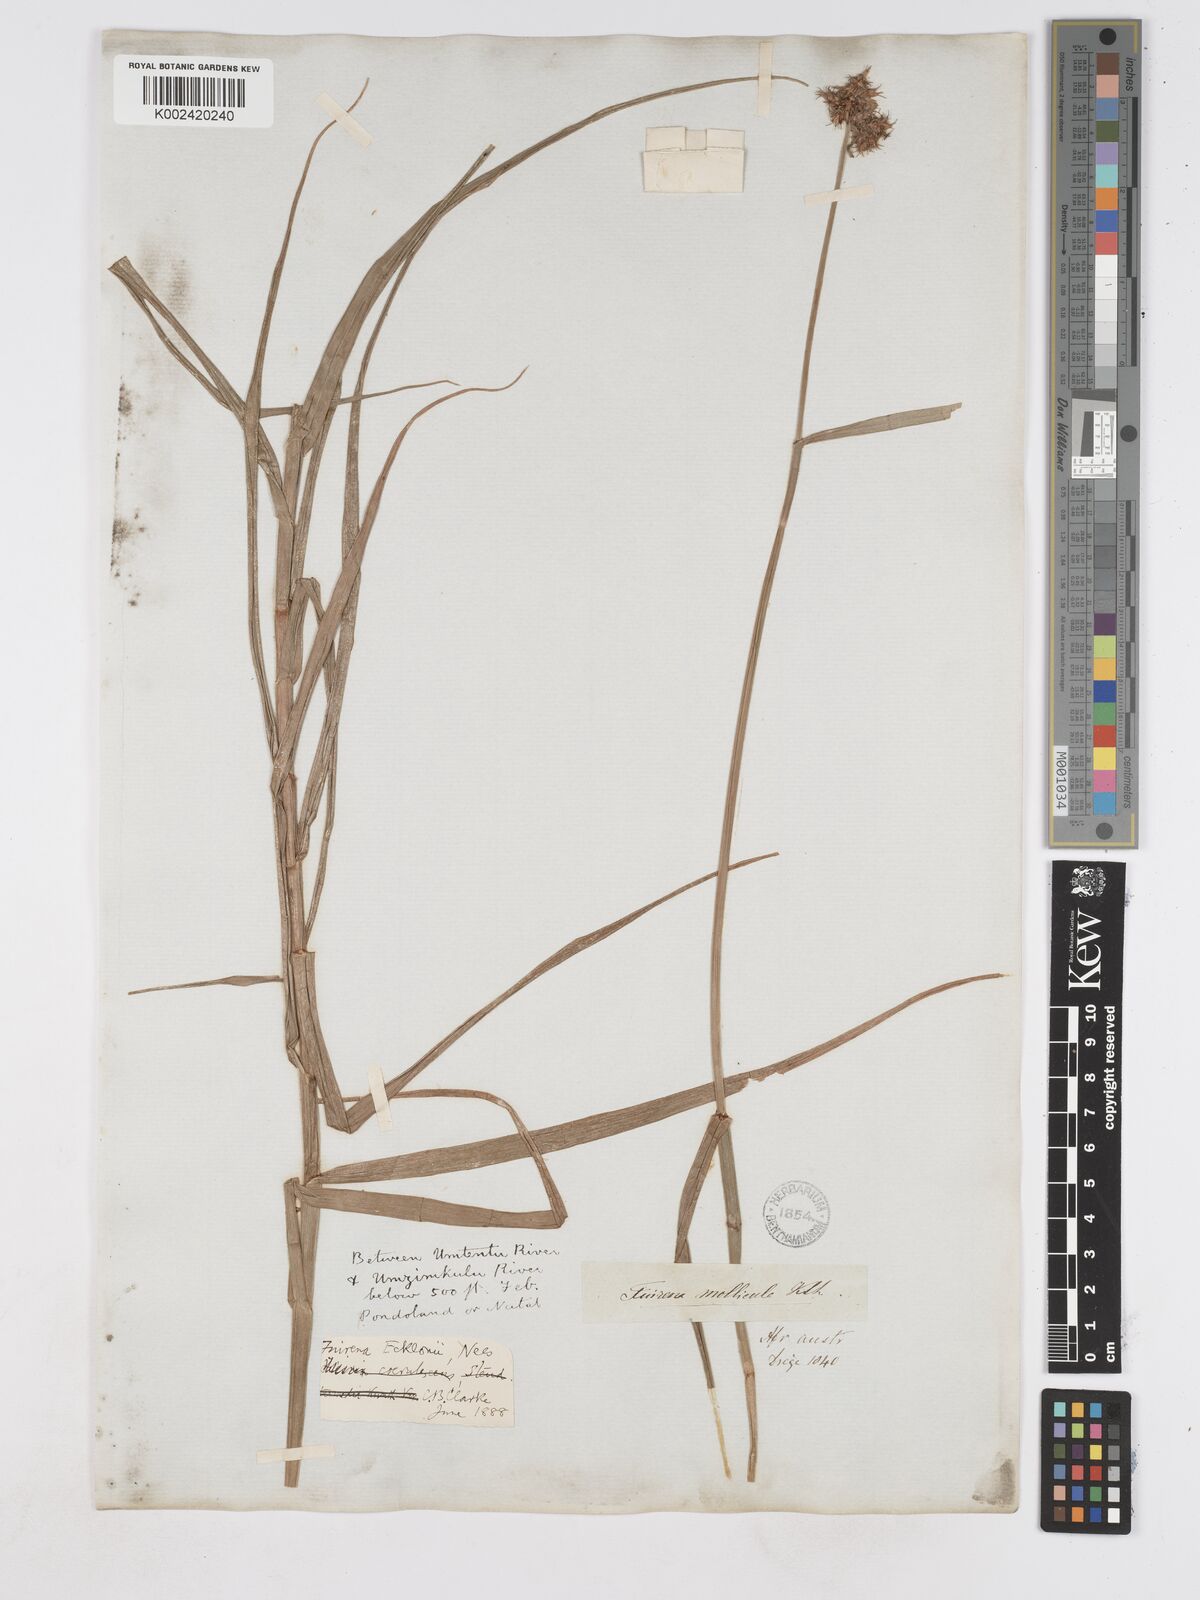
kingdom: Plantae
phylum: Tracheophyta
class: Liliopsida
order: Poales
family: Cyperaceae
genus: Fuirena
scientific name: Fuirena ecklonii
